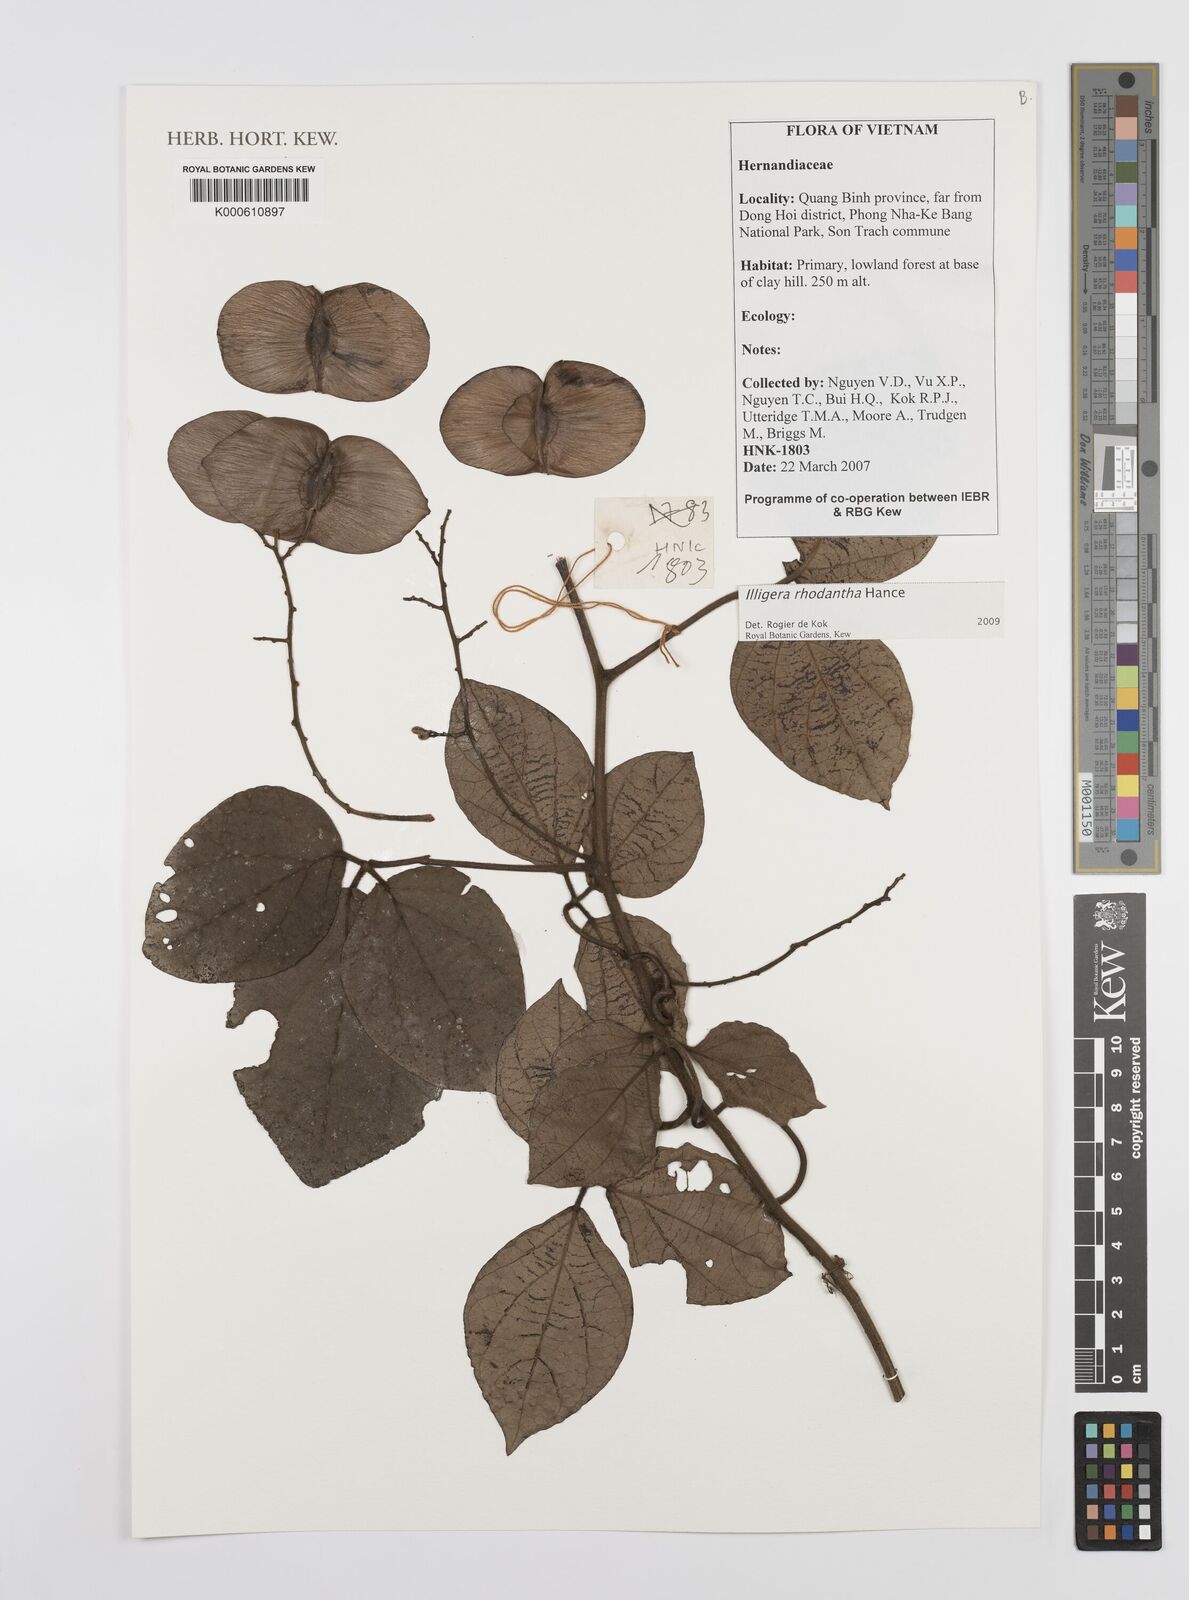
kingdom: Plantae
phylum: Tracheophyta
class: Magnoliopsida
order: Laurales
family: Hernandiaceae
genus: Illigera
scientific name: Illigera rhodantha
